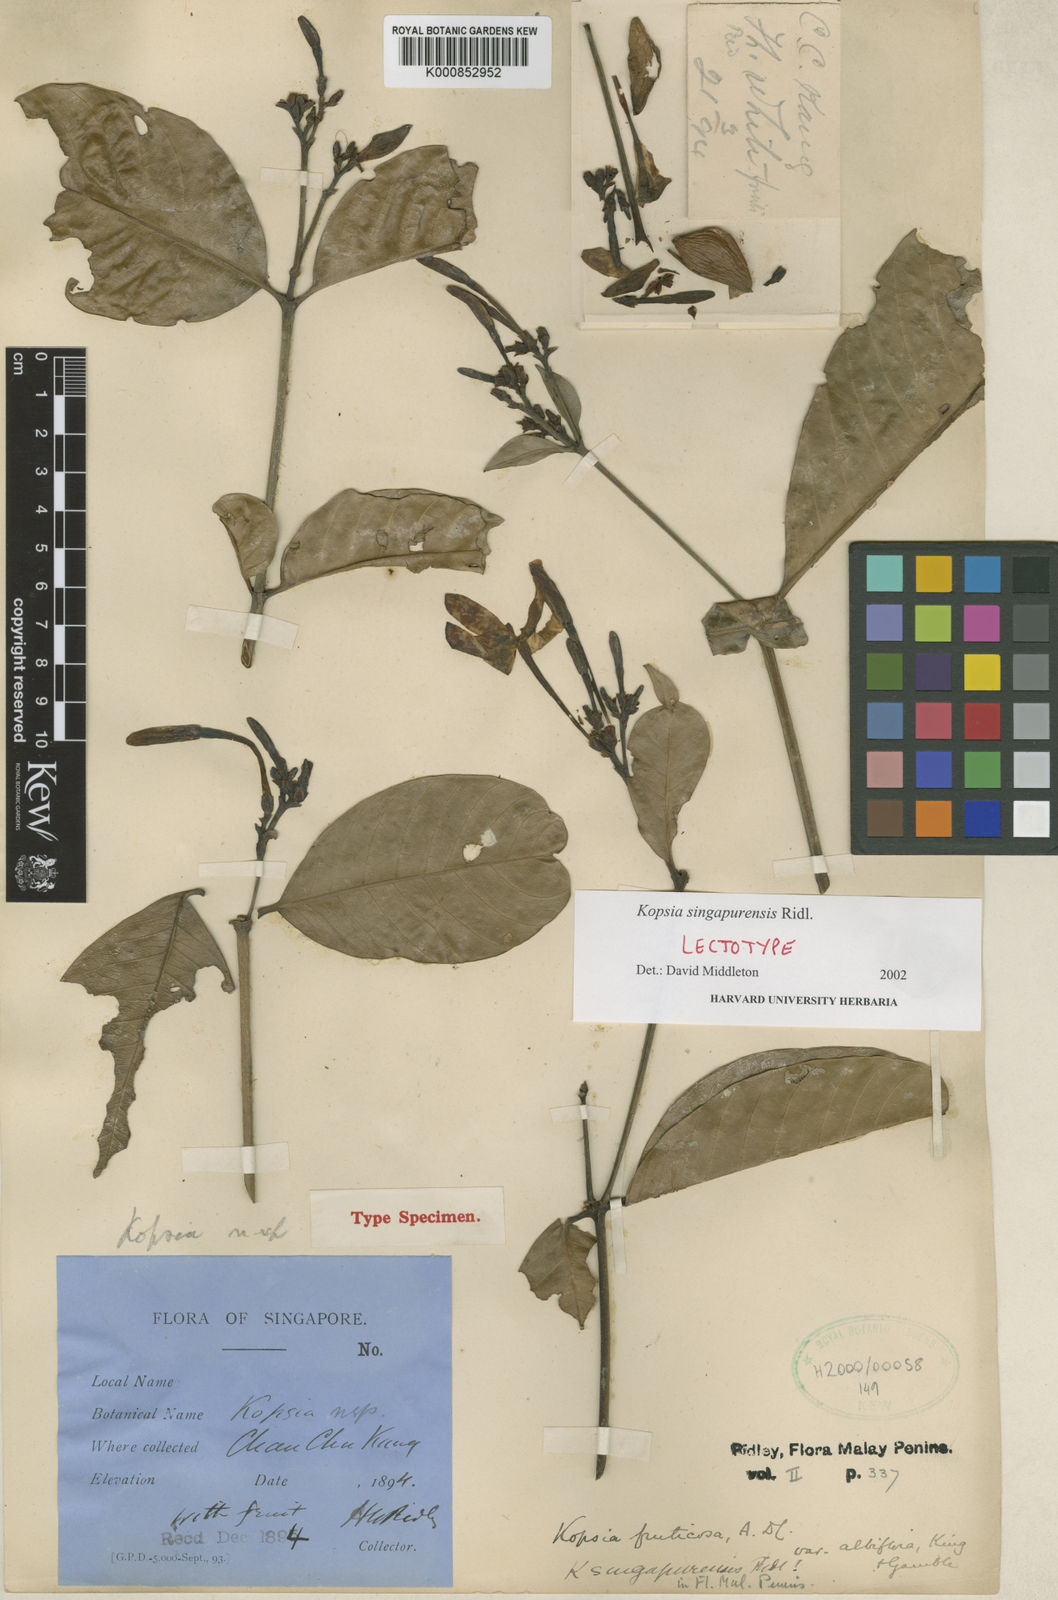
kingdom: Plantae
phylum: Tracheophyta
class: Magnoliopsida
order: Gentianales
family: Apocynaceae
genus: Kopsia
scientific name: Kopsia singapurensis
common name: White kopsia
